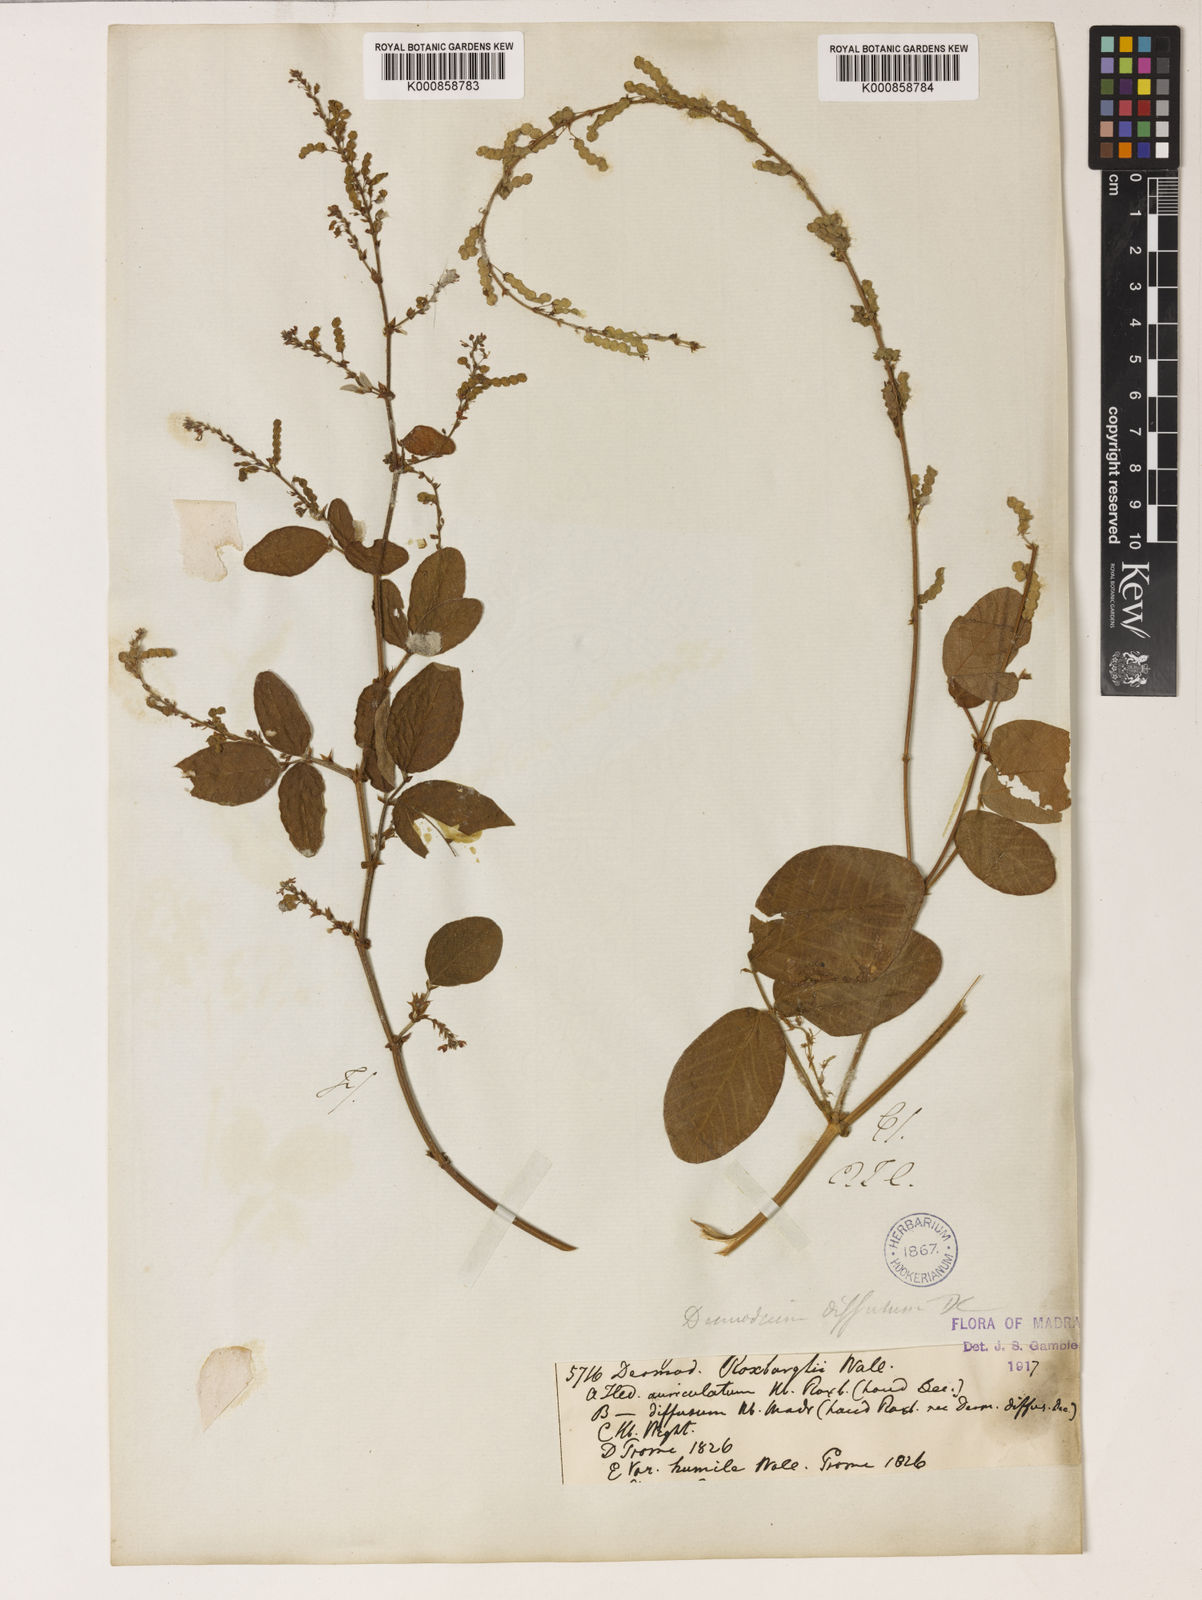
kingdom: Plantae
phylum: Tracheophyta
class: Magnoliopsida
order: Fabales
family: Fabaceae
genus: Bouffordia
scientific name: Bouffordia dichotoma
